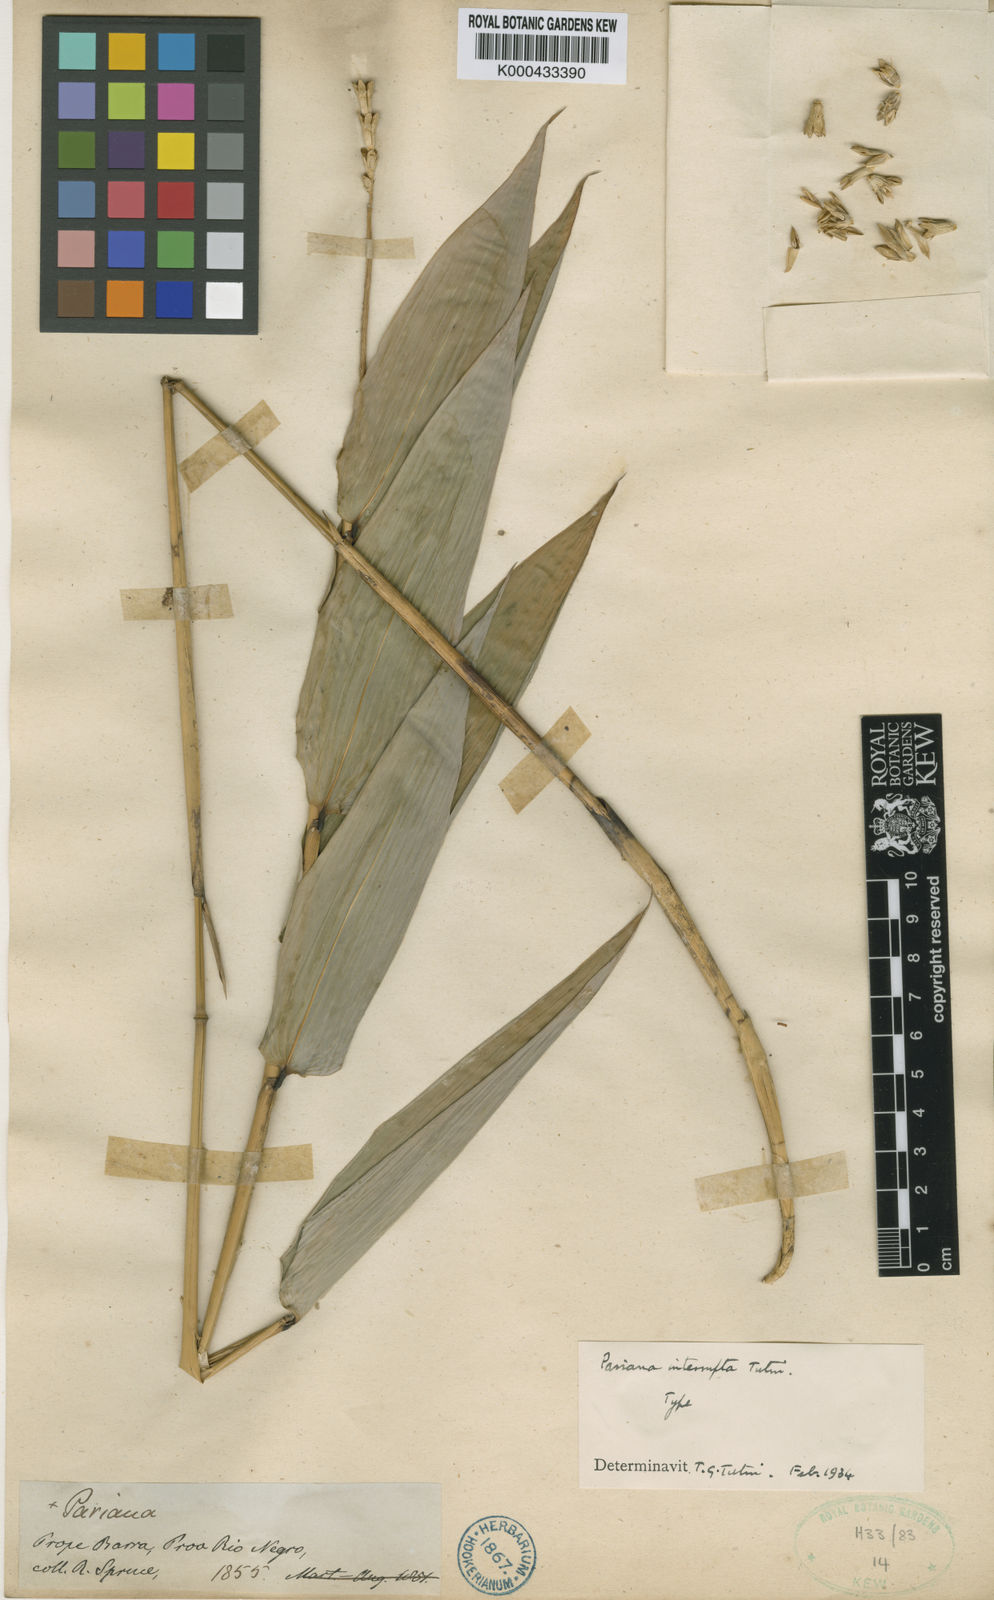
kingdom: Plantae
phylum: Tracheophyta
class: Liliopsida
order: Poales
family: Poaceae
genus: Pariana
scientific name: Pariana interrupta
